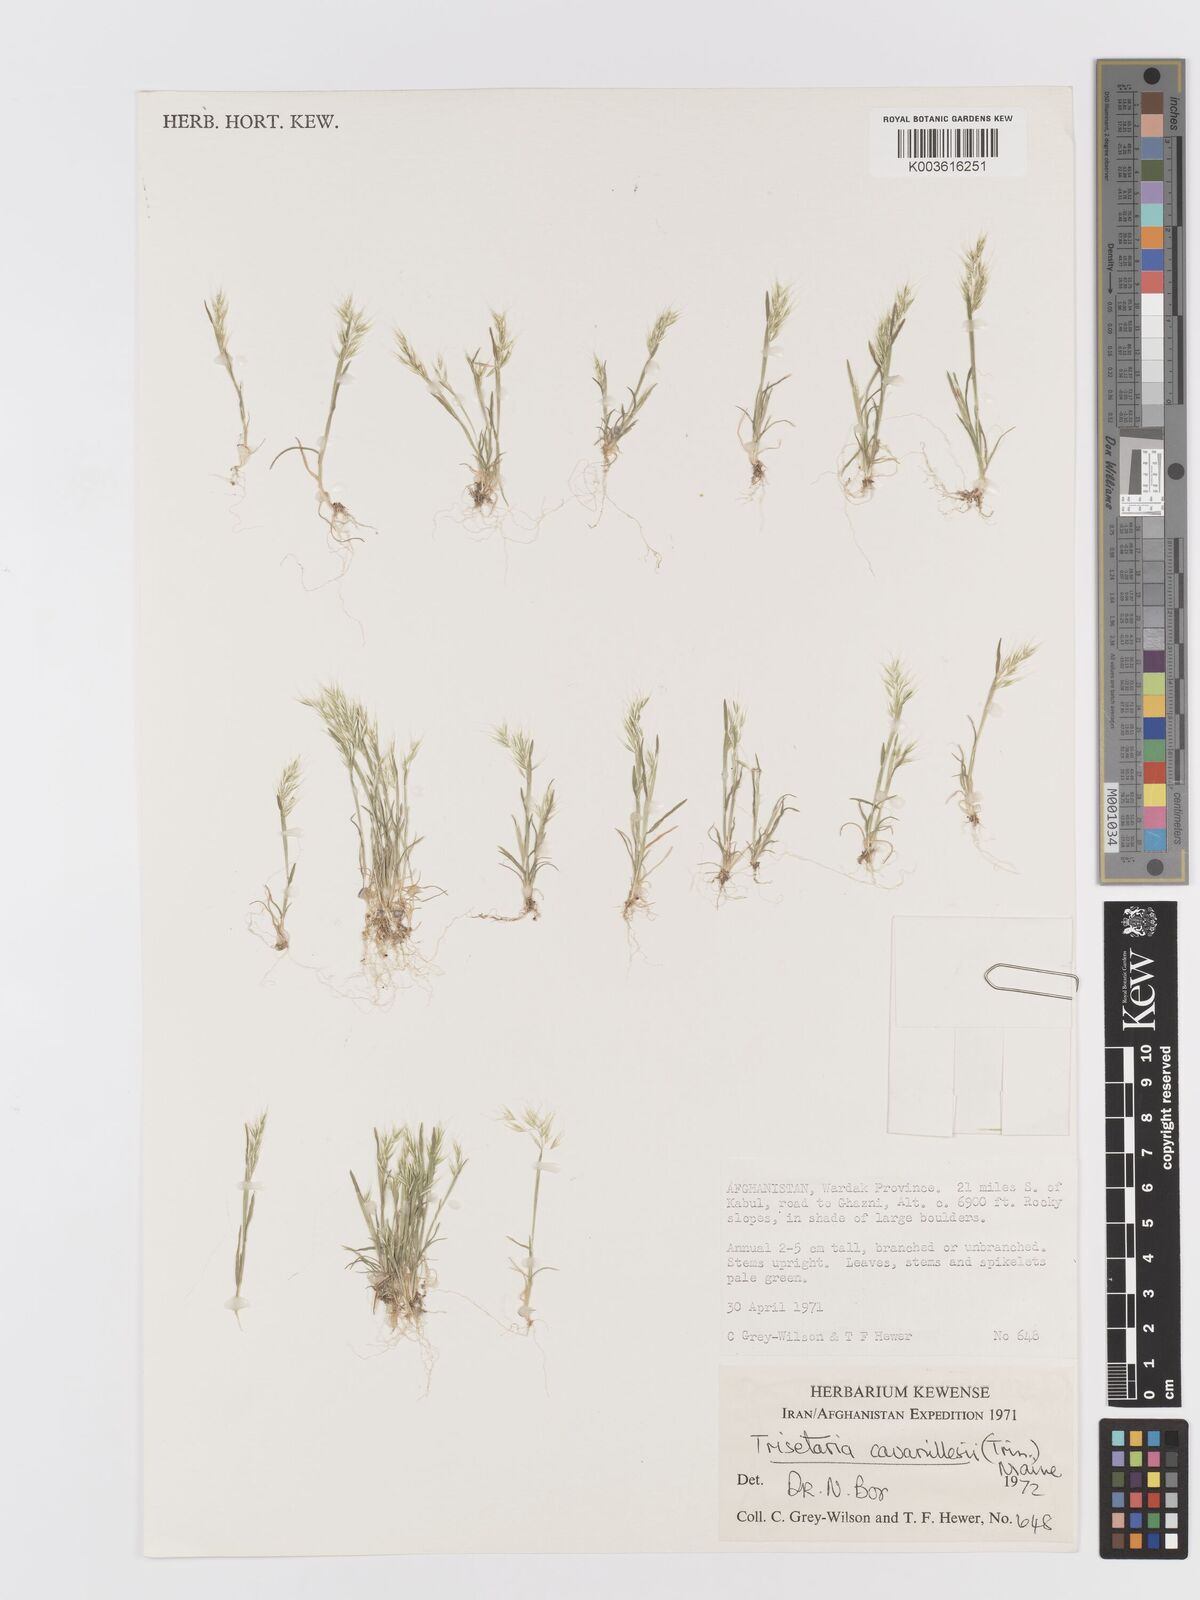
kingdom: Plantae
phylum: Tracheophyta
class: Liliopsida
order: Poales
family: Poaceae
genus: Trisetaria
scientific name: Trisetaria loeflingiana
